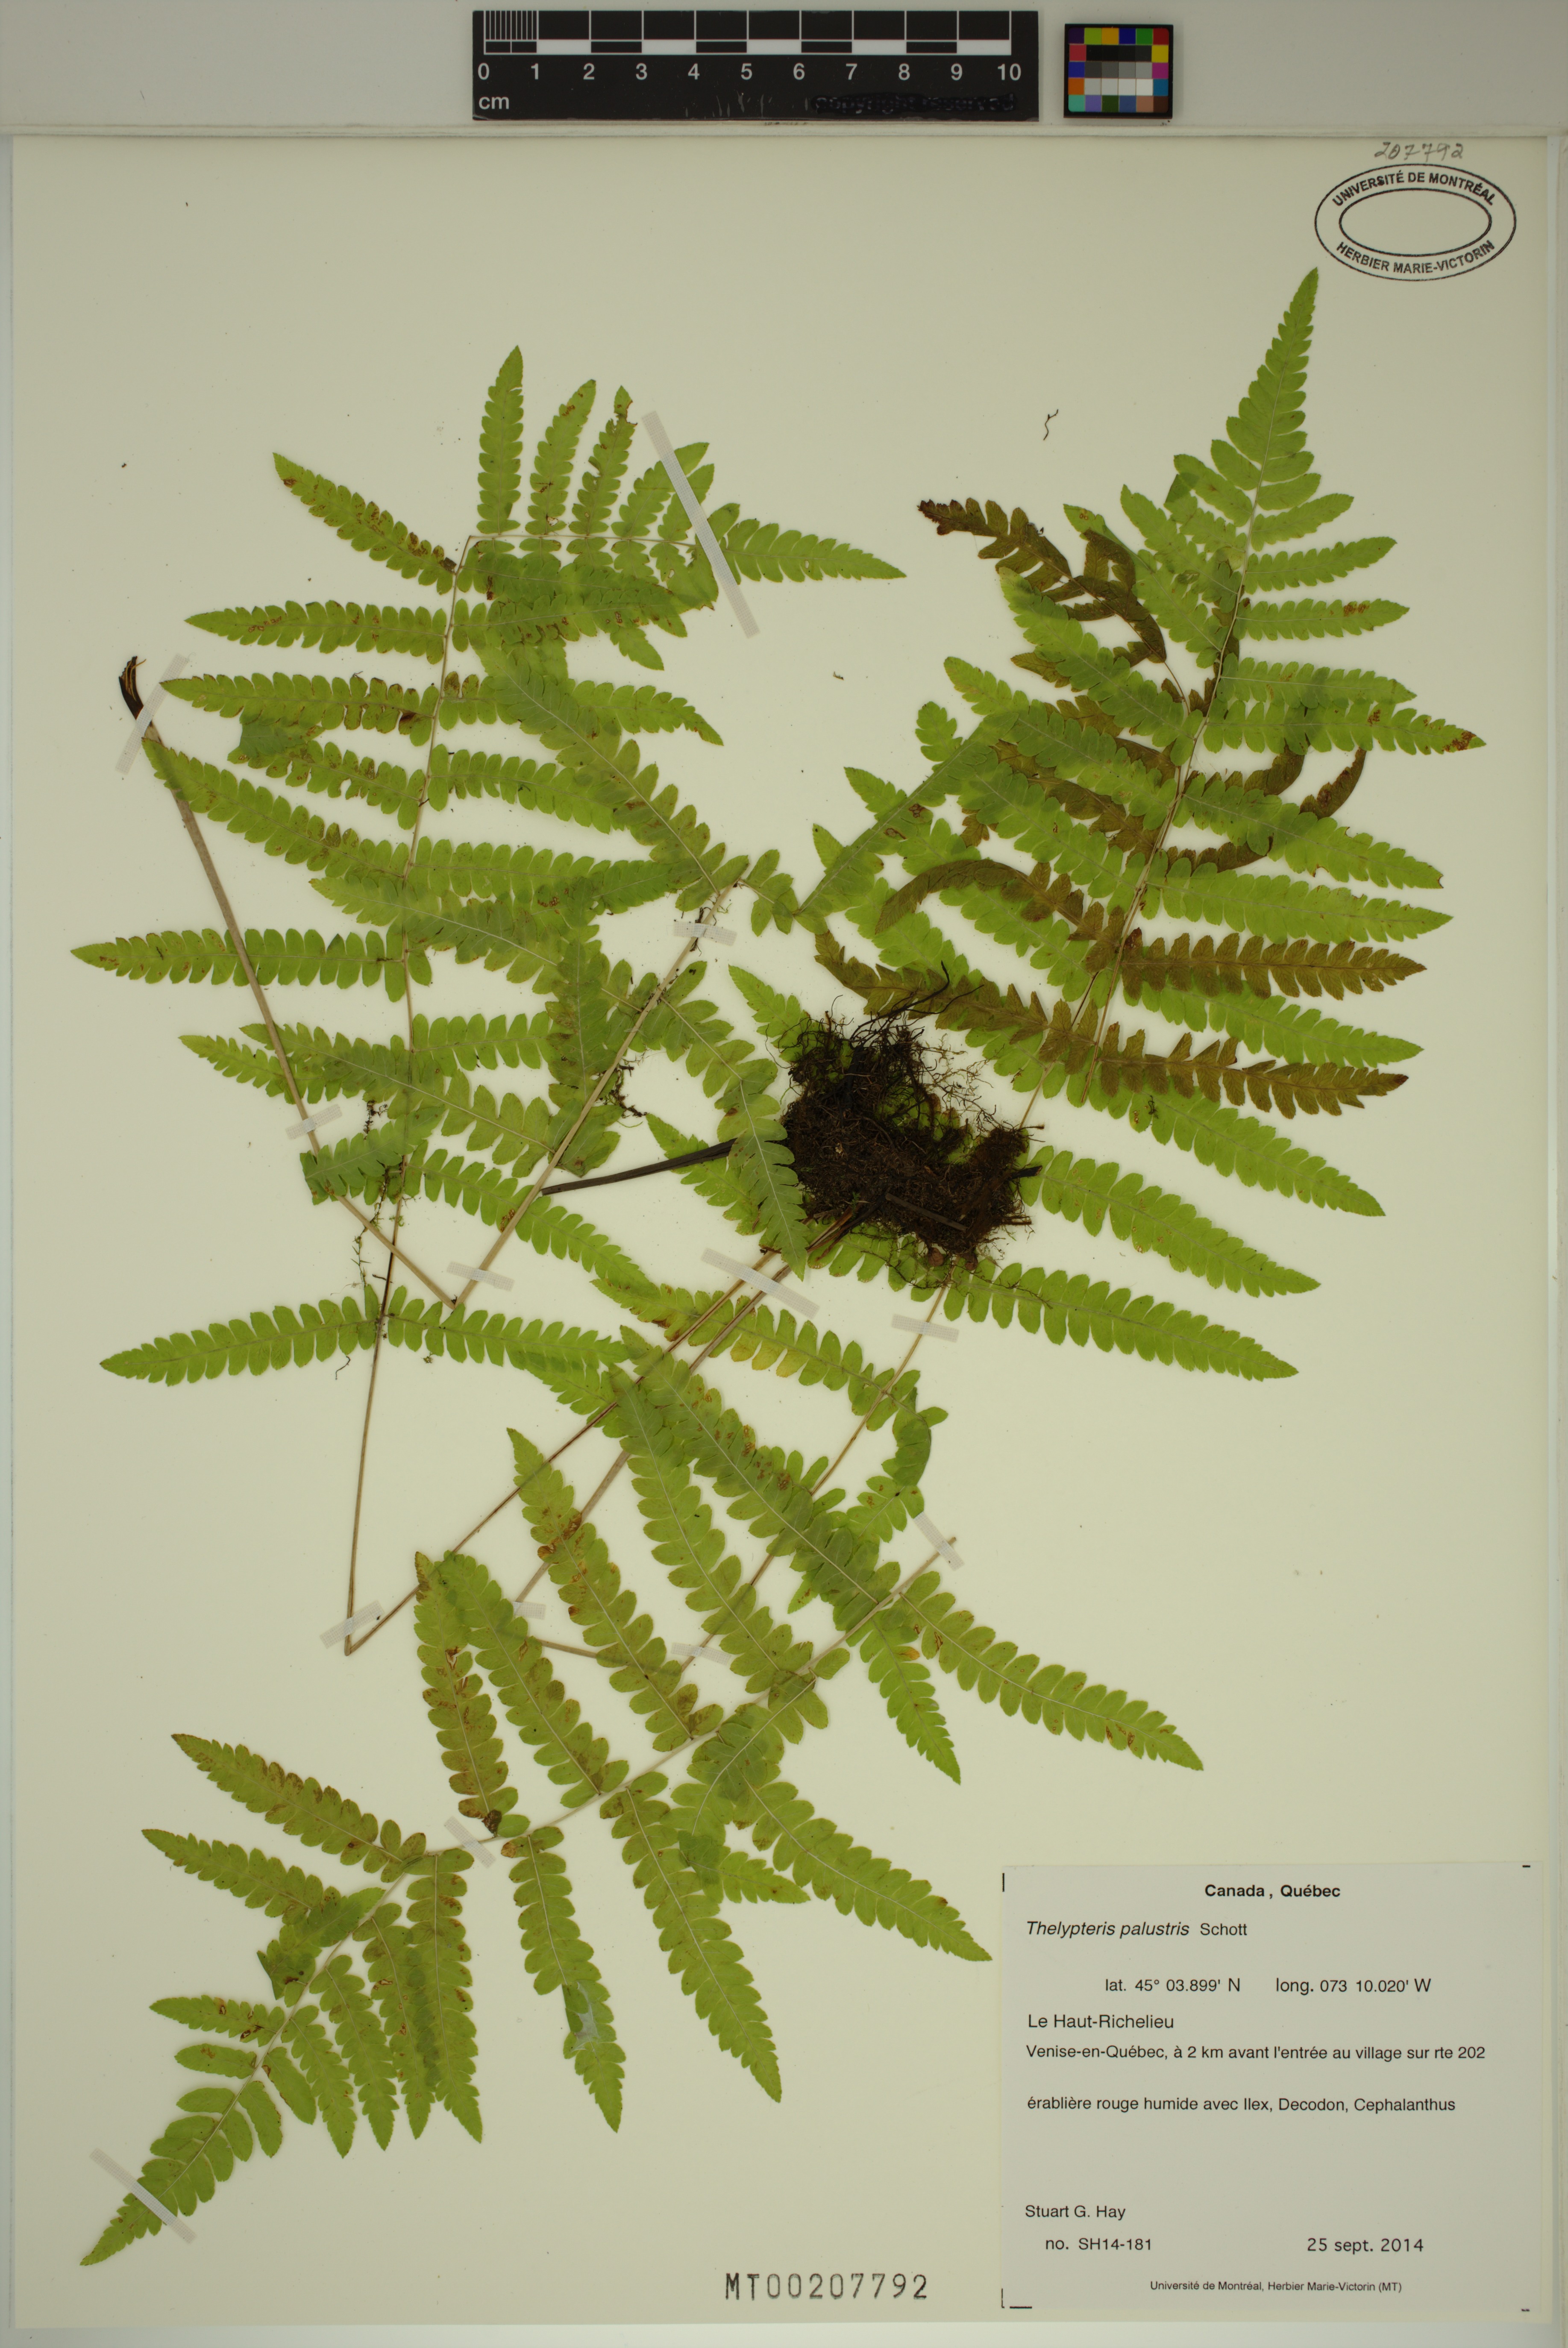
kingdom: Plantae
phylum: Tracheophyta
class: Polypodiopsida
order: Polypodiales
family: Thelypteridaceae
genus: Thelypteris
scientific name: Thelypteris palustris
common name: Marsh fern
